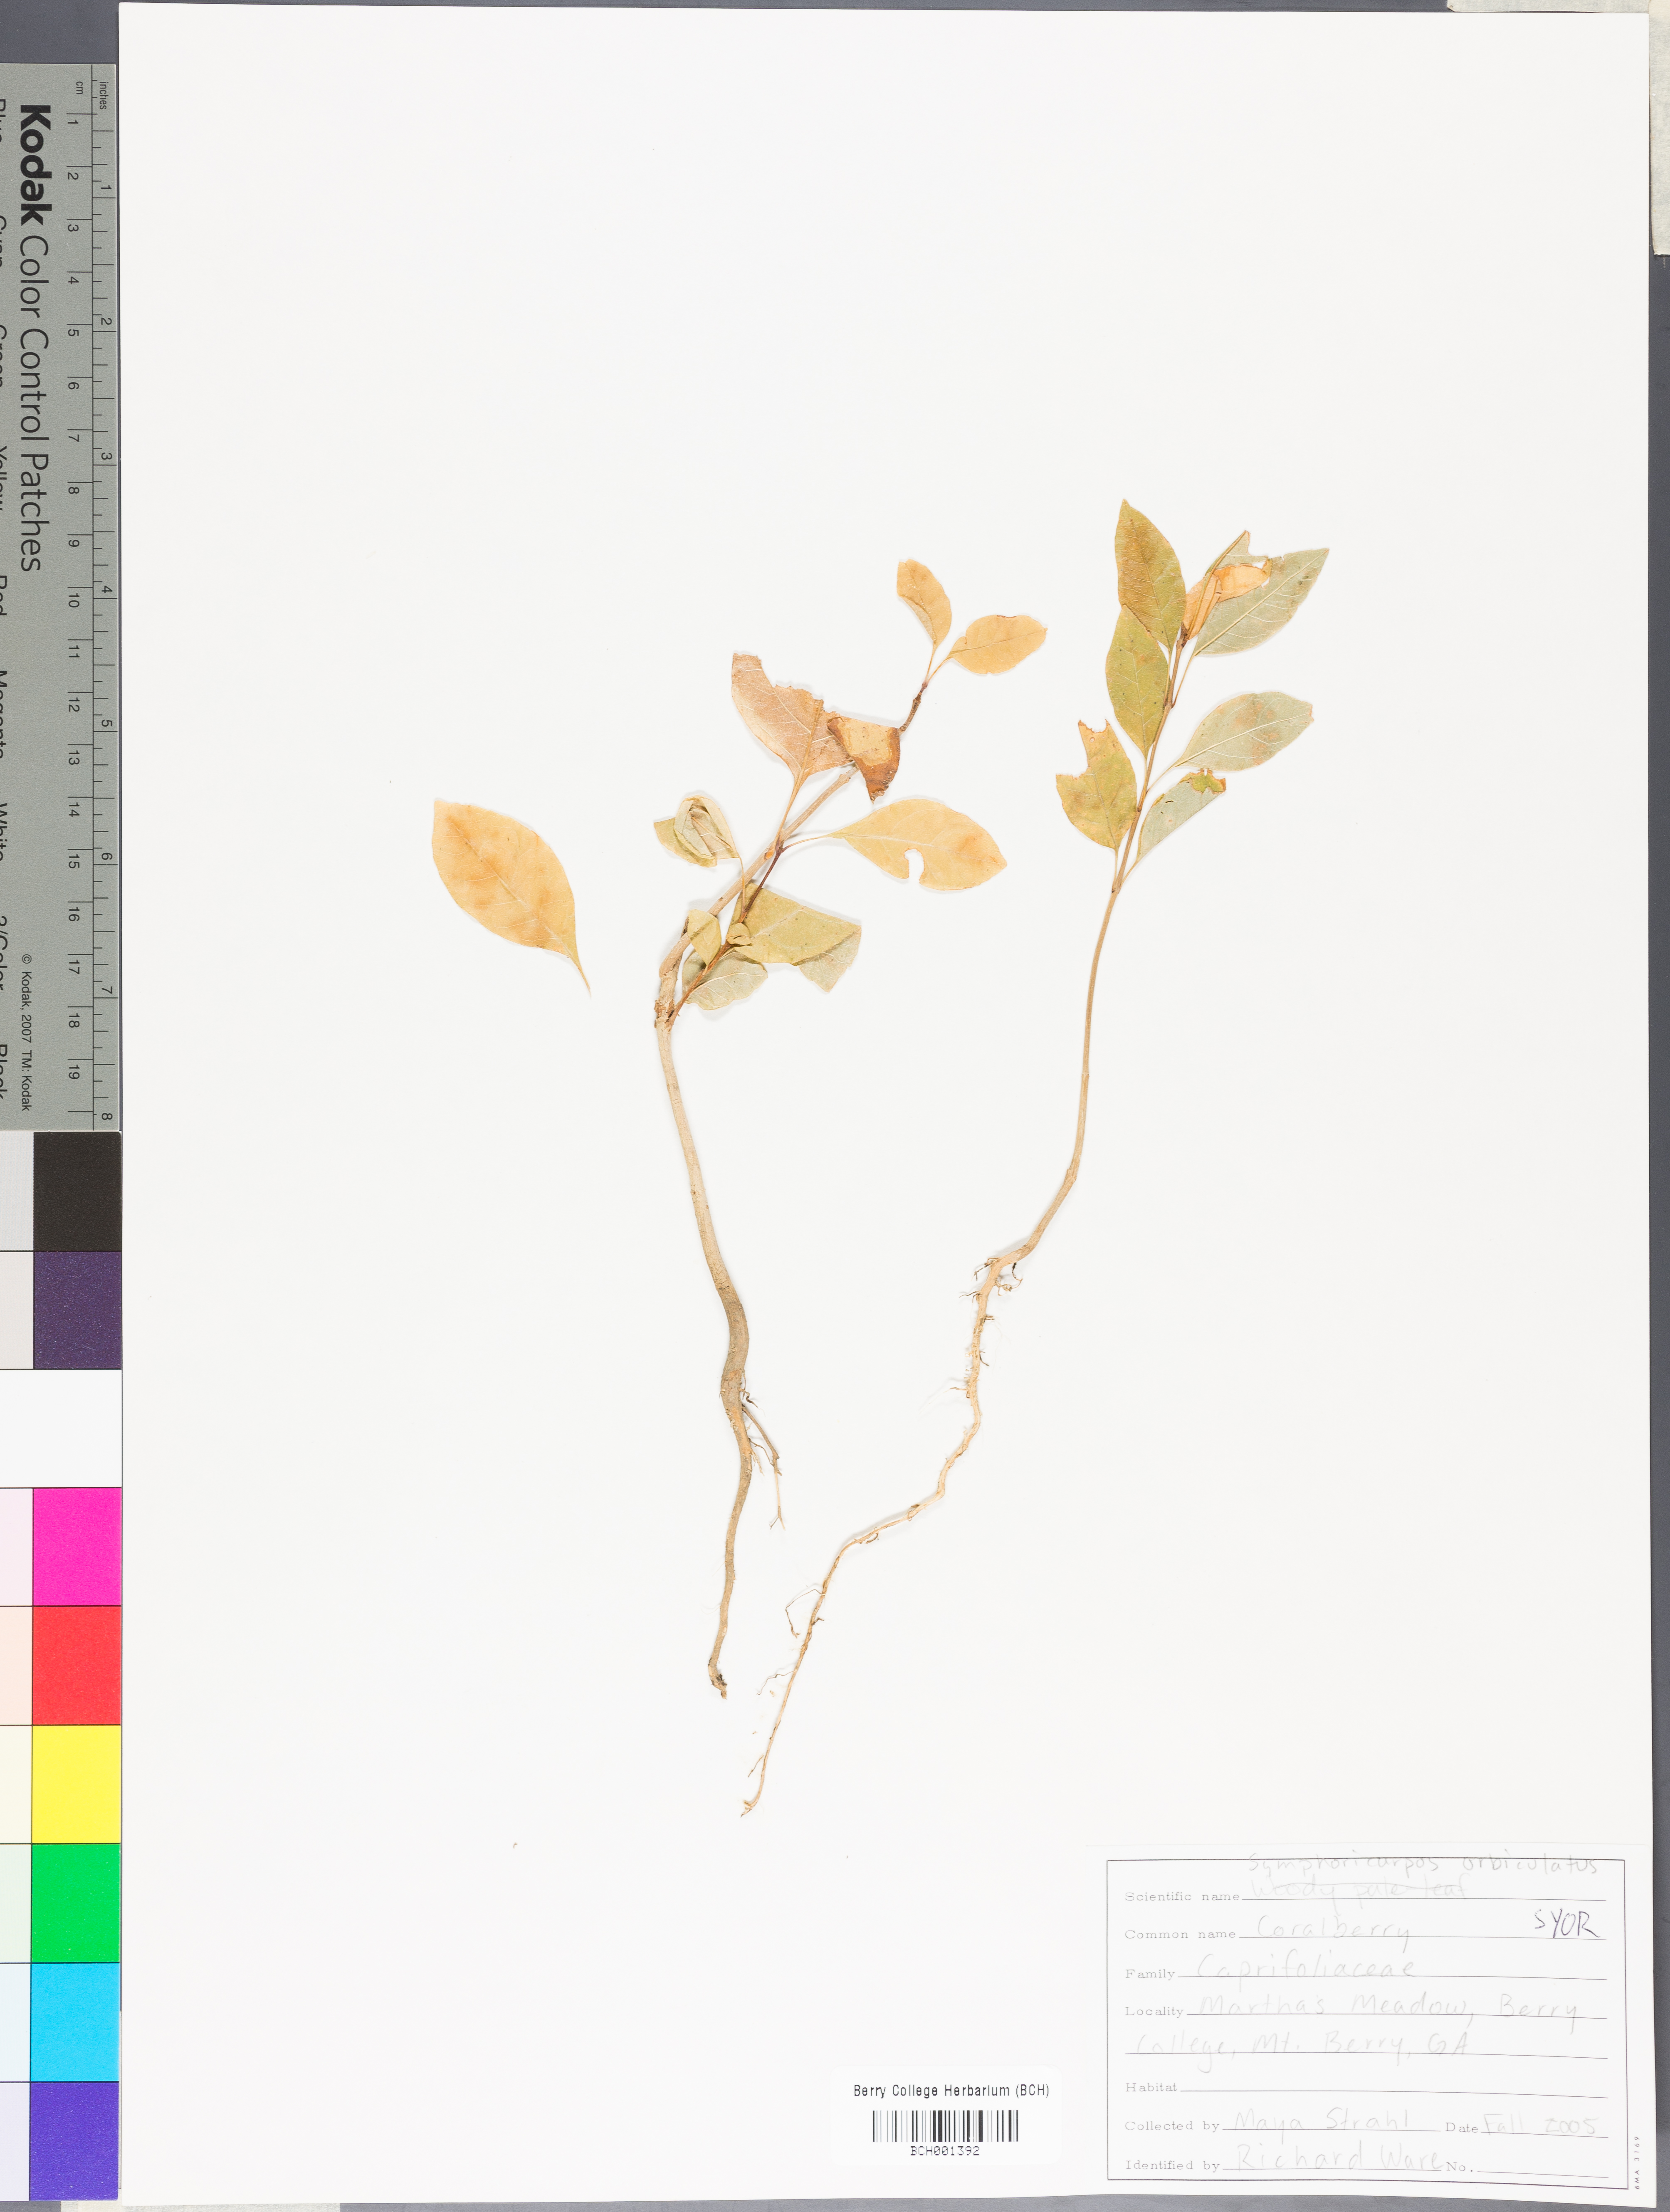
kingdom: Plantae
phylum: Tracheophyta
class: Magnoliopsida
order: Dipsacales
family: Caprifoliaceae
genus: Symphoricarpos
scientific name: Symphoricarpos orbiculatus
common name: Coralberry
